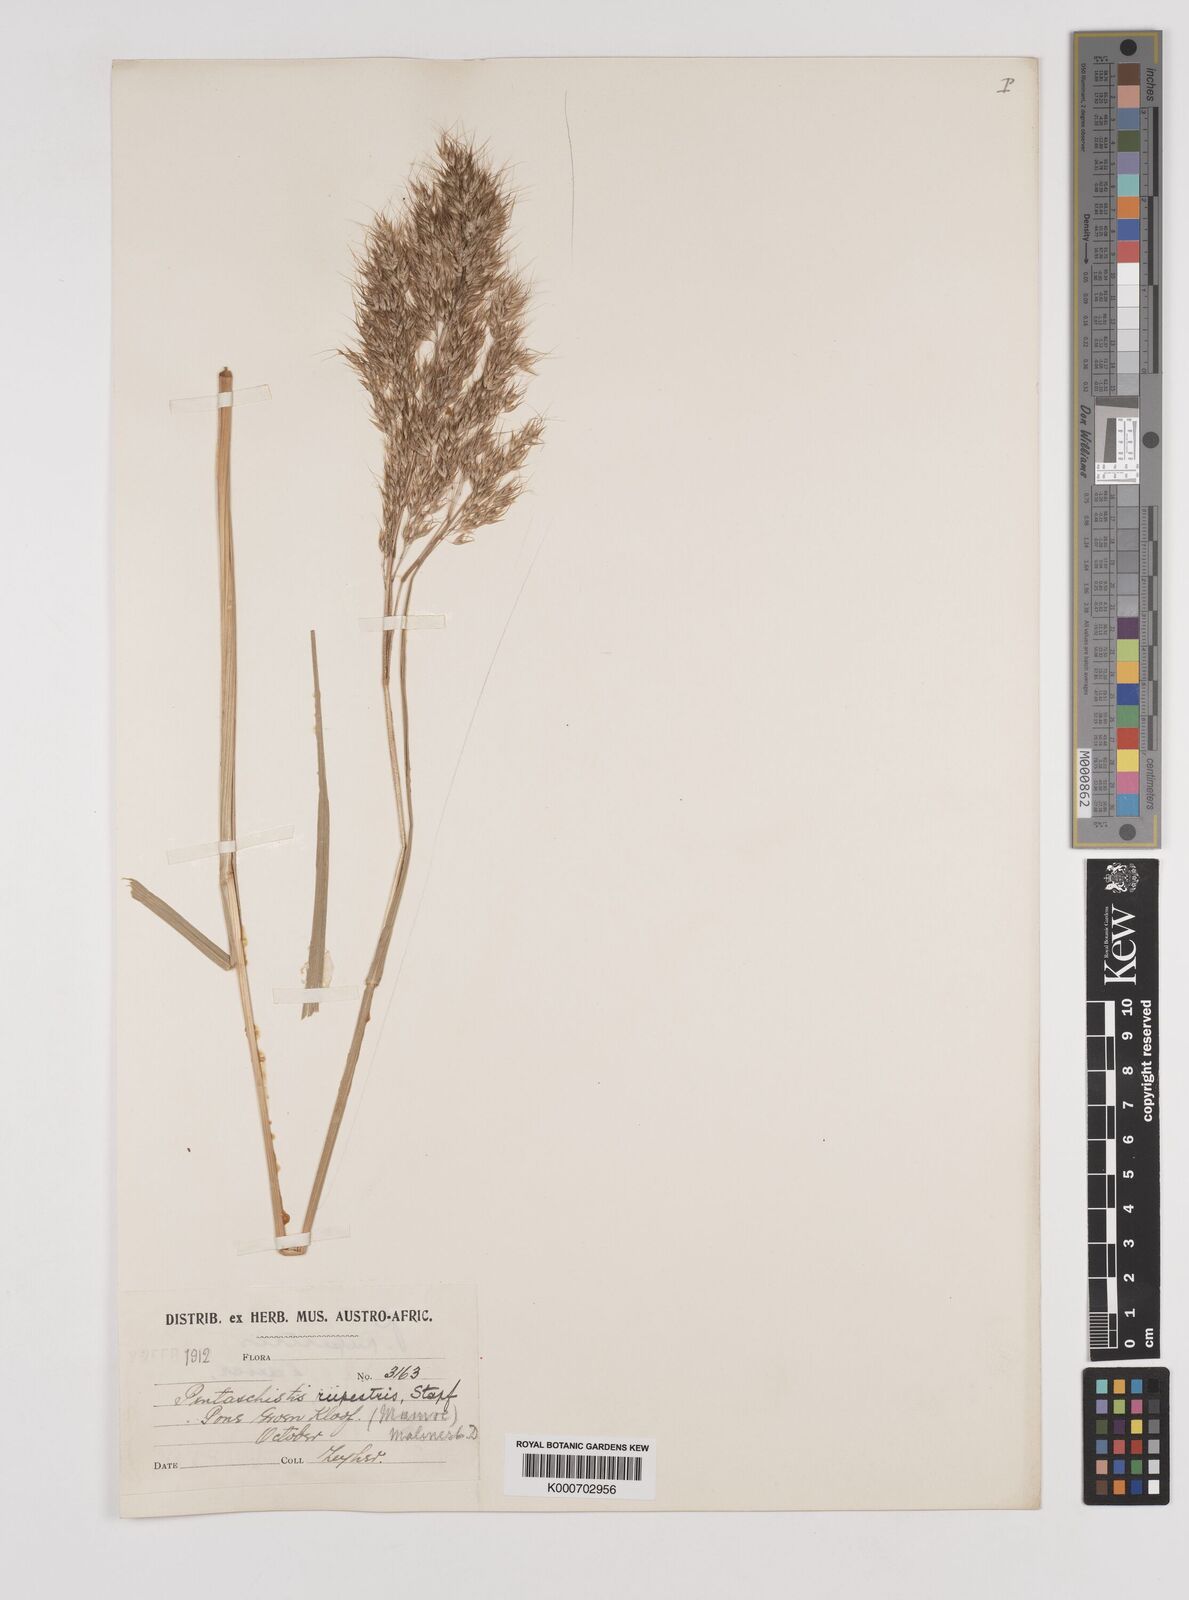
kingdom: Plantae
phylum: Tracheophyta
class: Liliopsida
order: Poales
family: Poaceae
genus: Pentameris
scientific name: Pentameris rupestris
